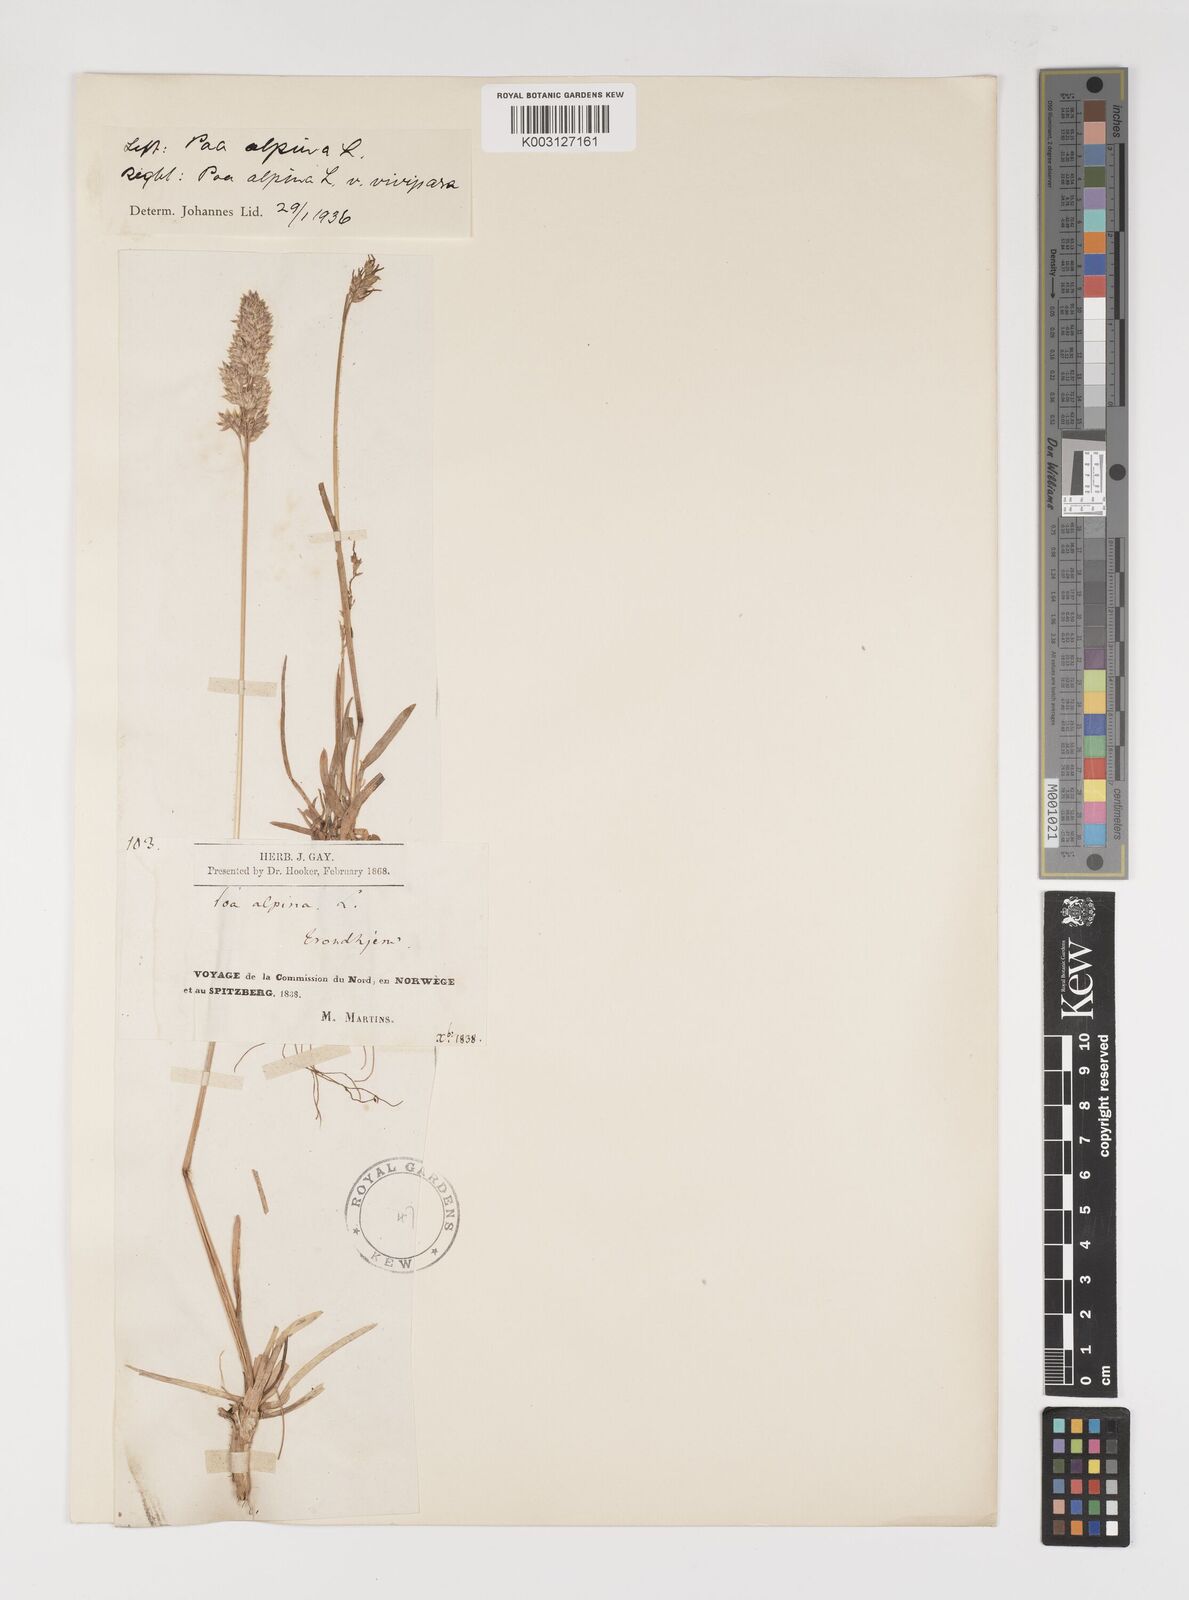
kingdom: Plantae
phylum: Tracheophyta
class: Liliopsida
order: Poales
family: Poaceae
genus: Poa
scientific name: Poa alpina
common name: Alpine bluegrass
